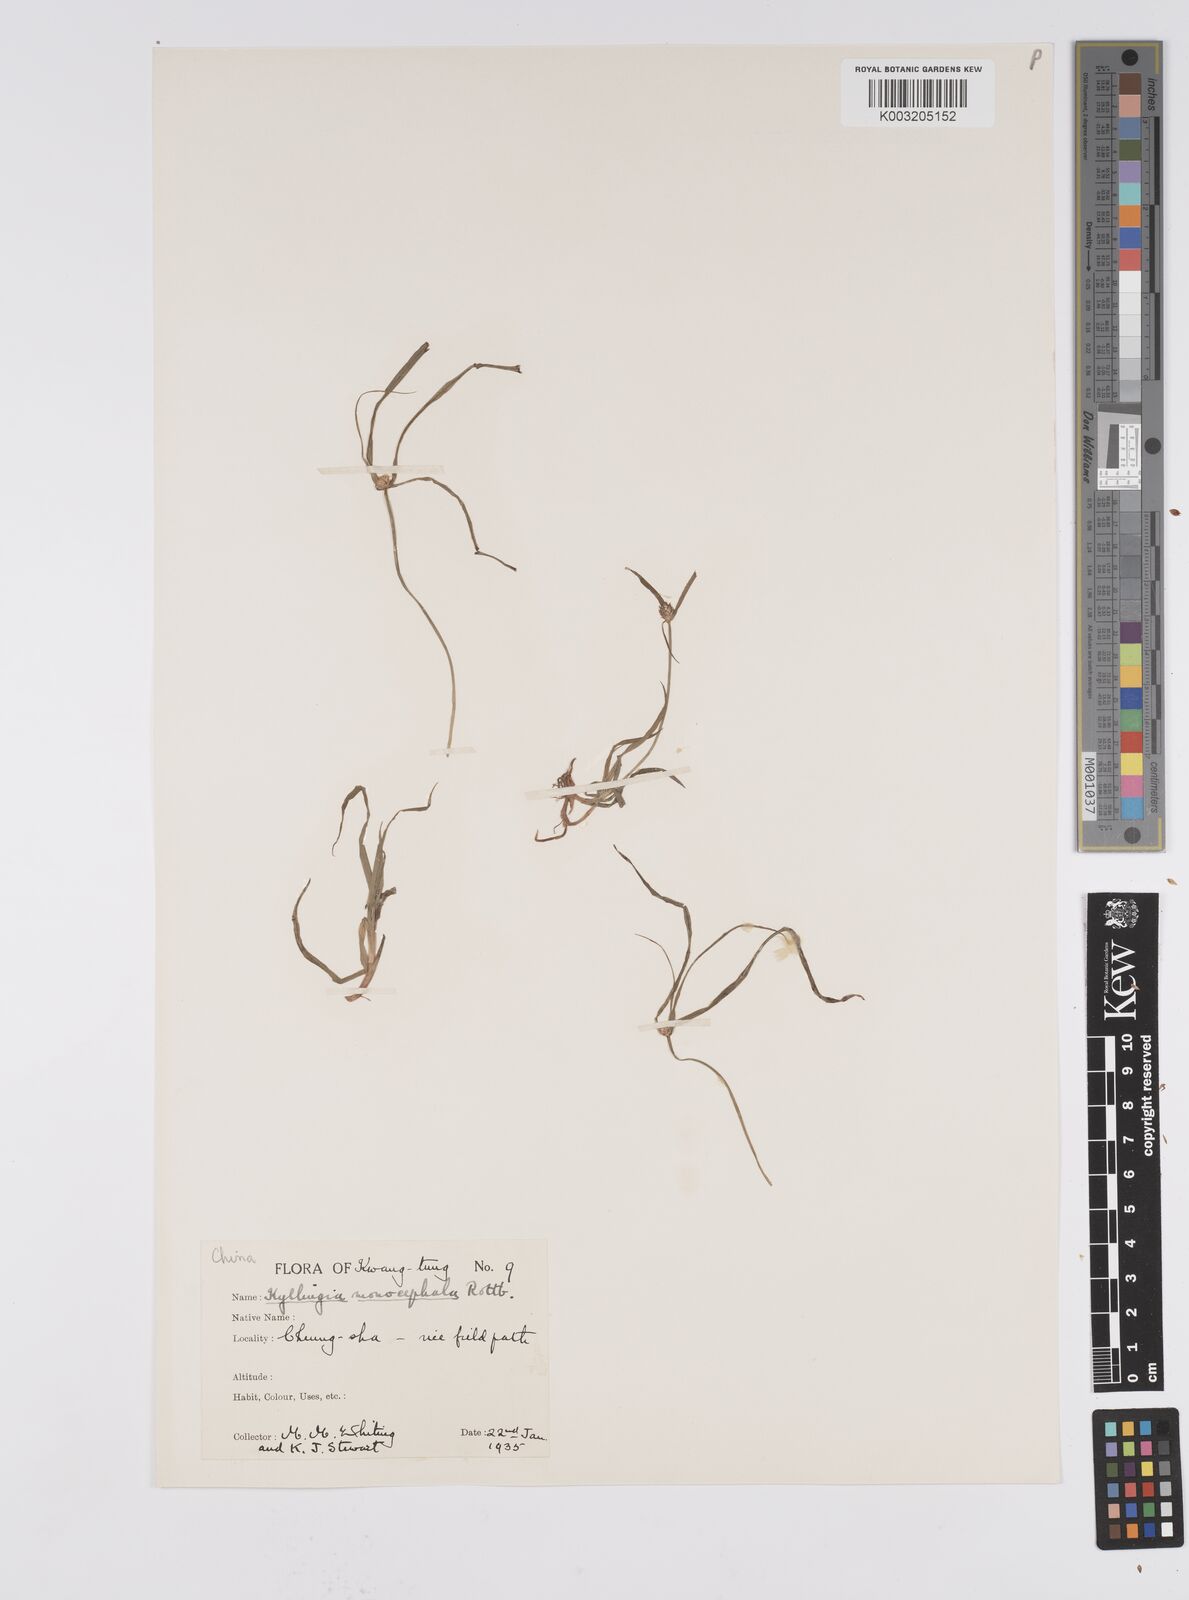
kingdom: Plantae
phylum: Tracheophyta
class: Liliopsida
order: Poales
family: Cyperaceae
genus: Cyperus
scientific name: Cyperus nemoralis
